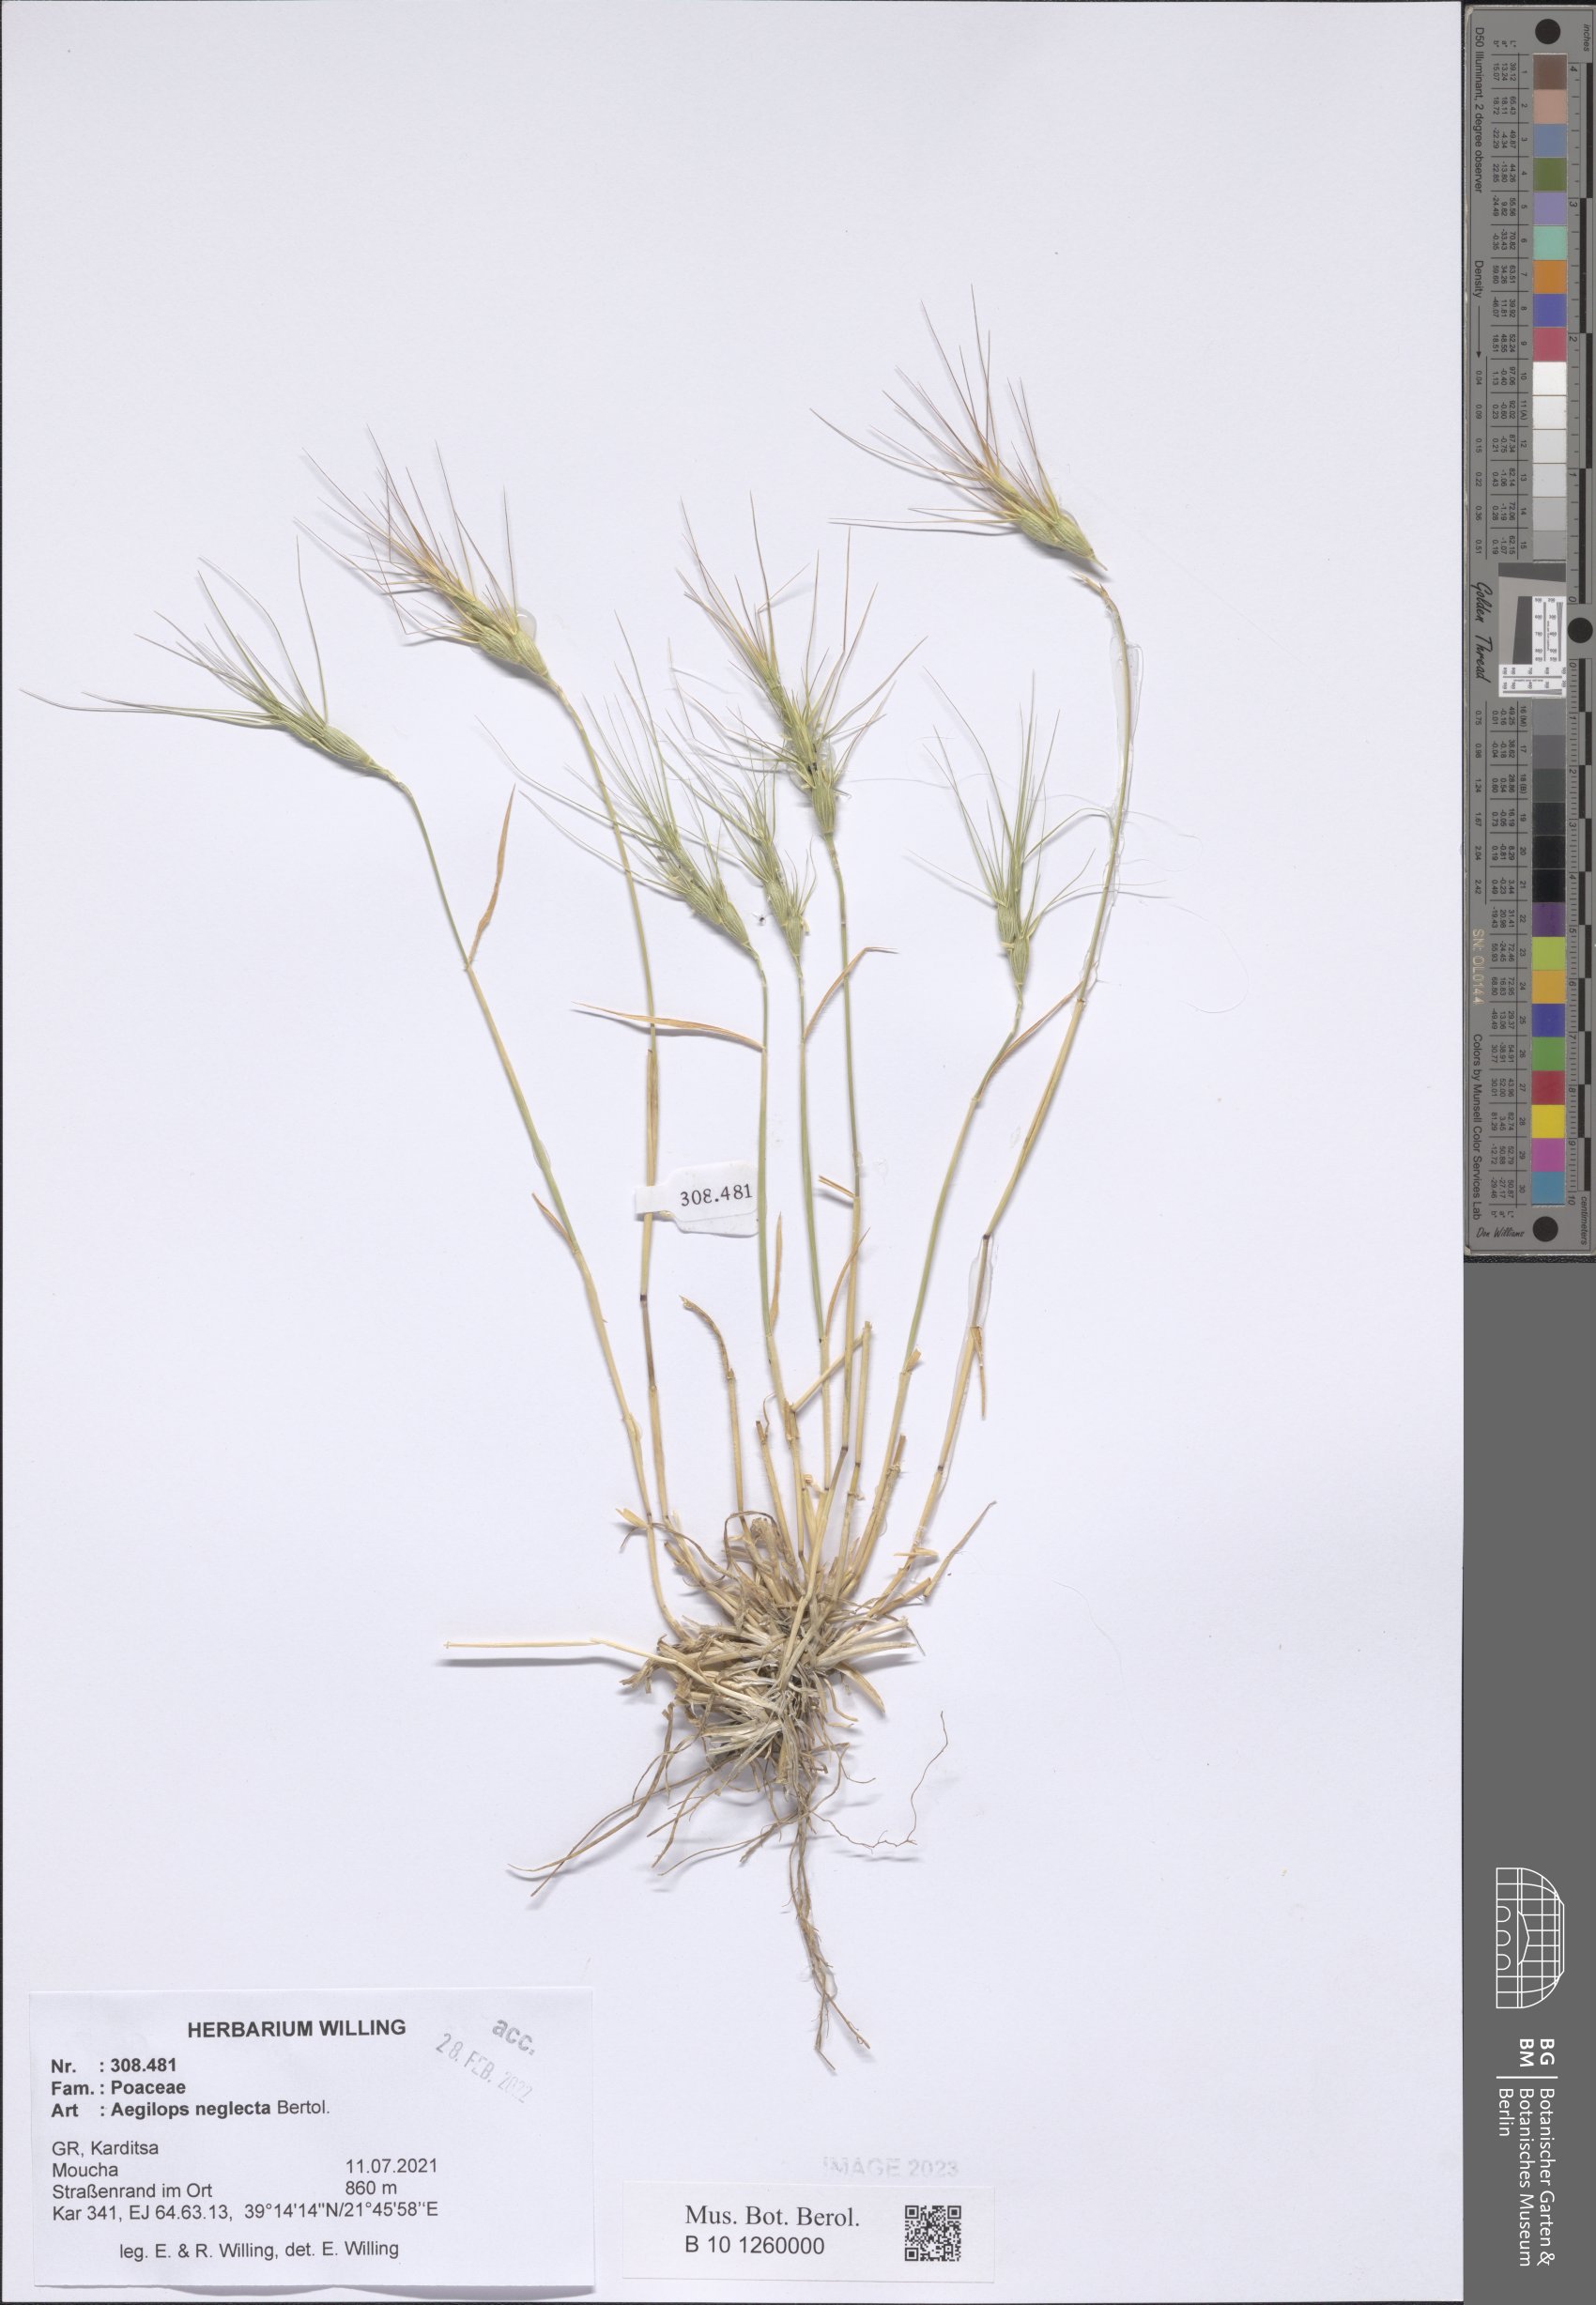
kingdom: Plantae
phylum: Tracheophyta
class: Liliopsida
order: Poales
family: Poaceae
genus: Aegilops
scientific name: Aegilops neglecta
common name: Three-awn goat grass
